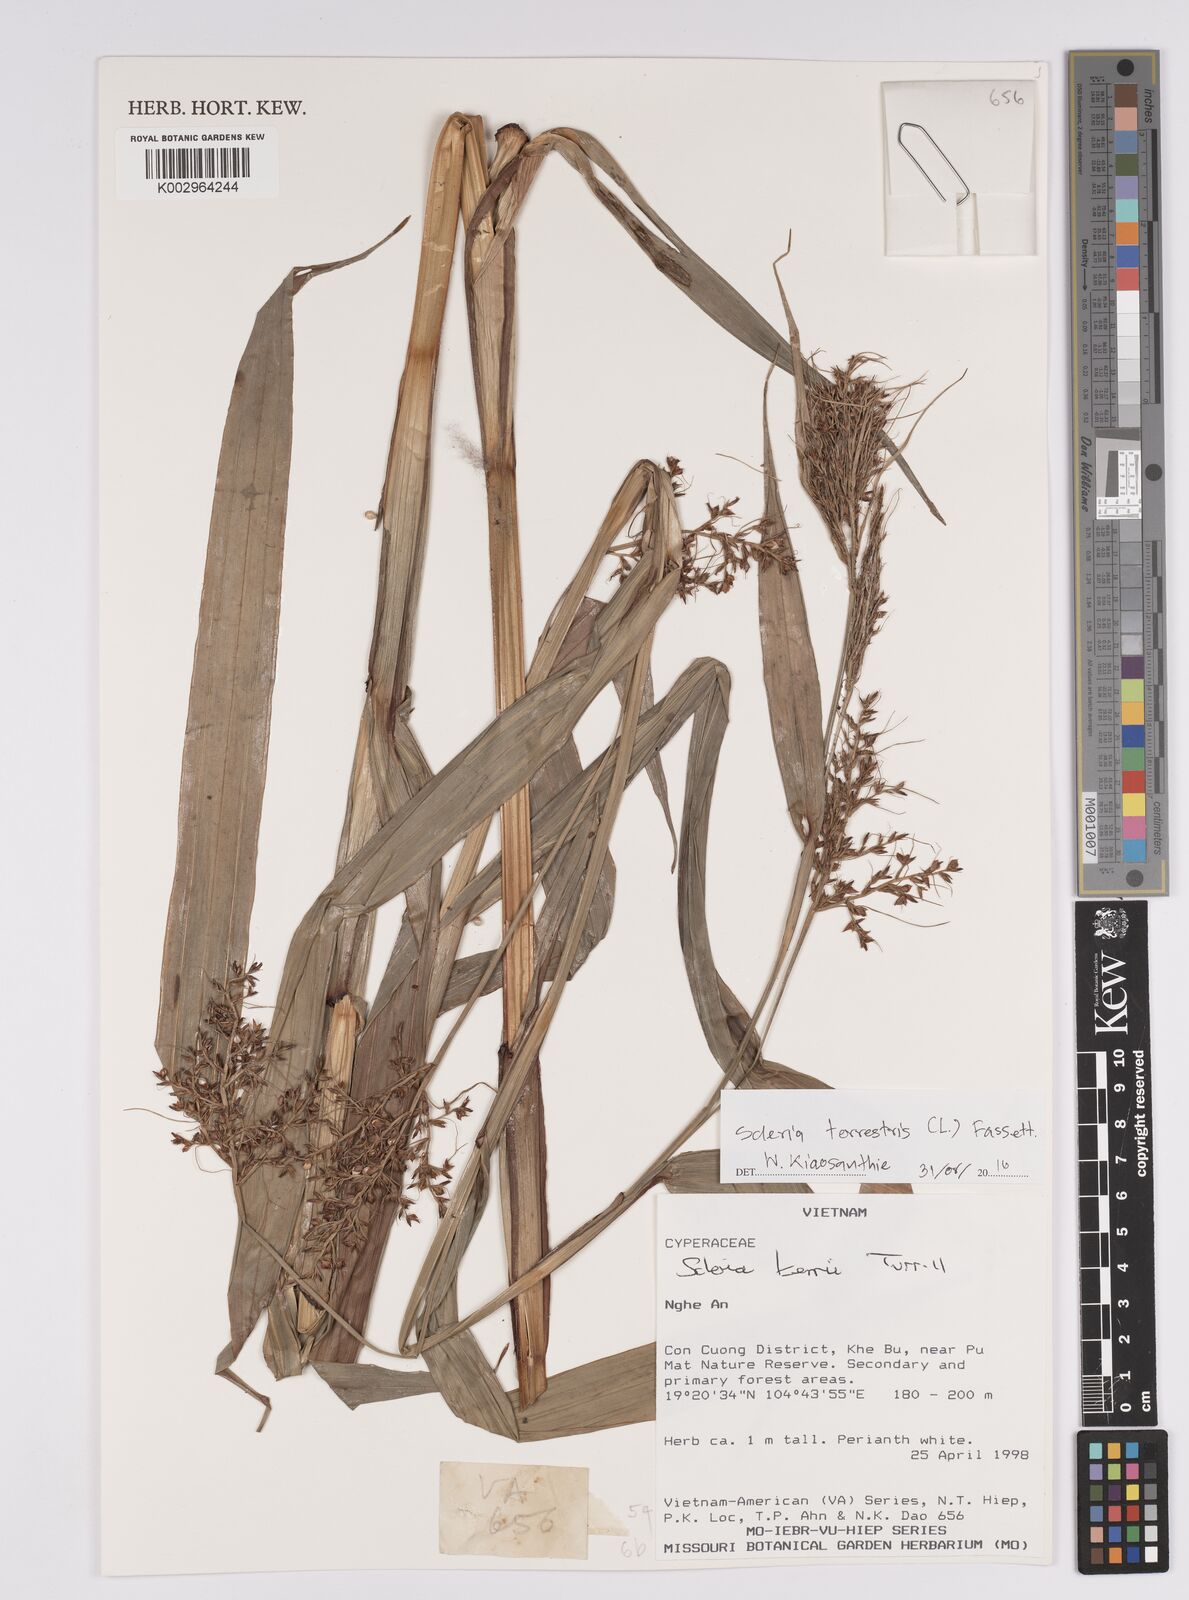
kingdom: Plantae
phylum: Tracheophyta
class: Liliopsida
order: Poales
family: Cyperaceae
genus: Scleria
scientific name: Scleria terrestris
